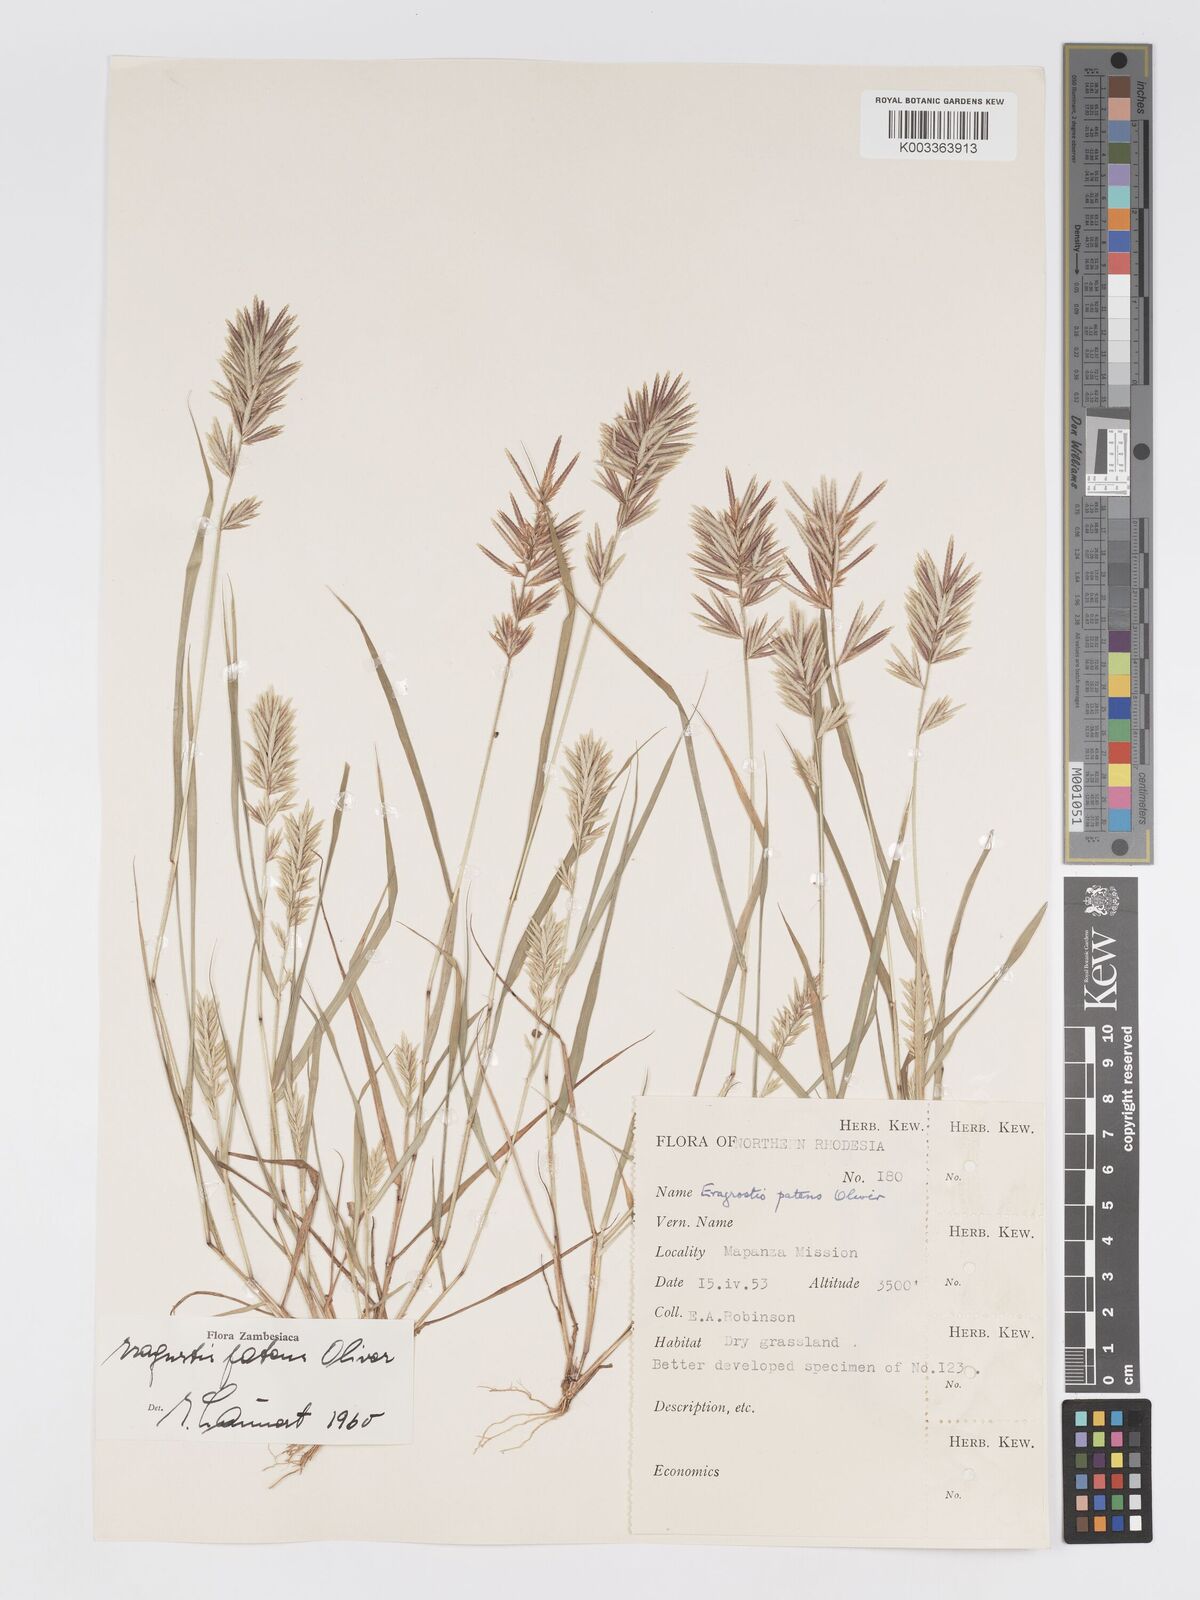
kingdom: Plantae
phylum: Tracheophyta
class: Liliopsida
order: Poales
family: Poaceae
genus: Eragrostis
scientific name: Eragrostis patens
